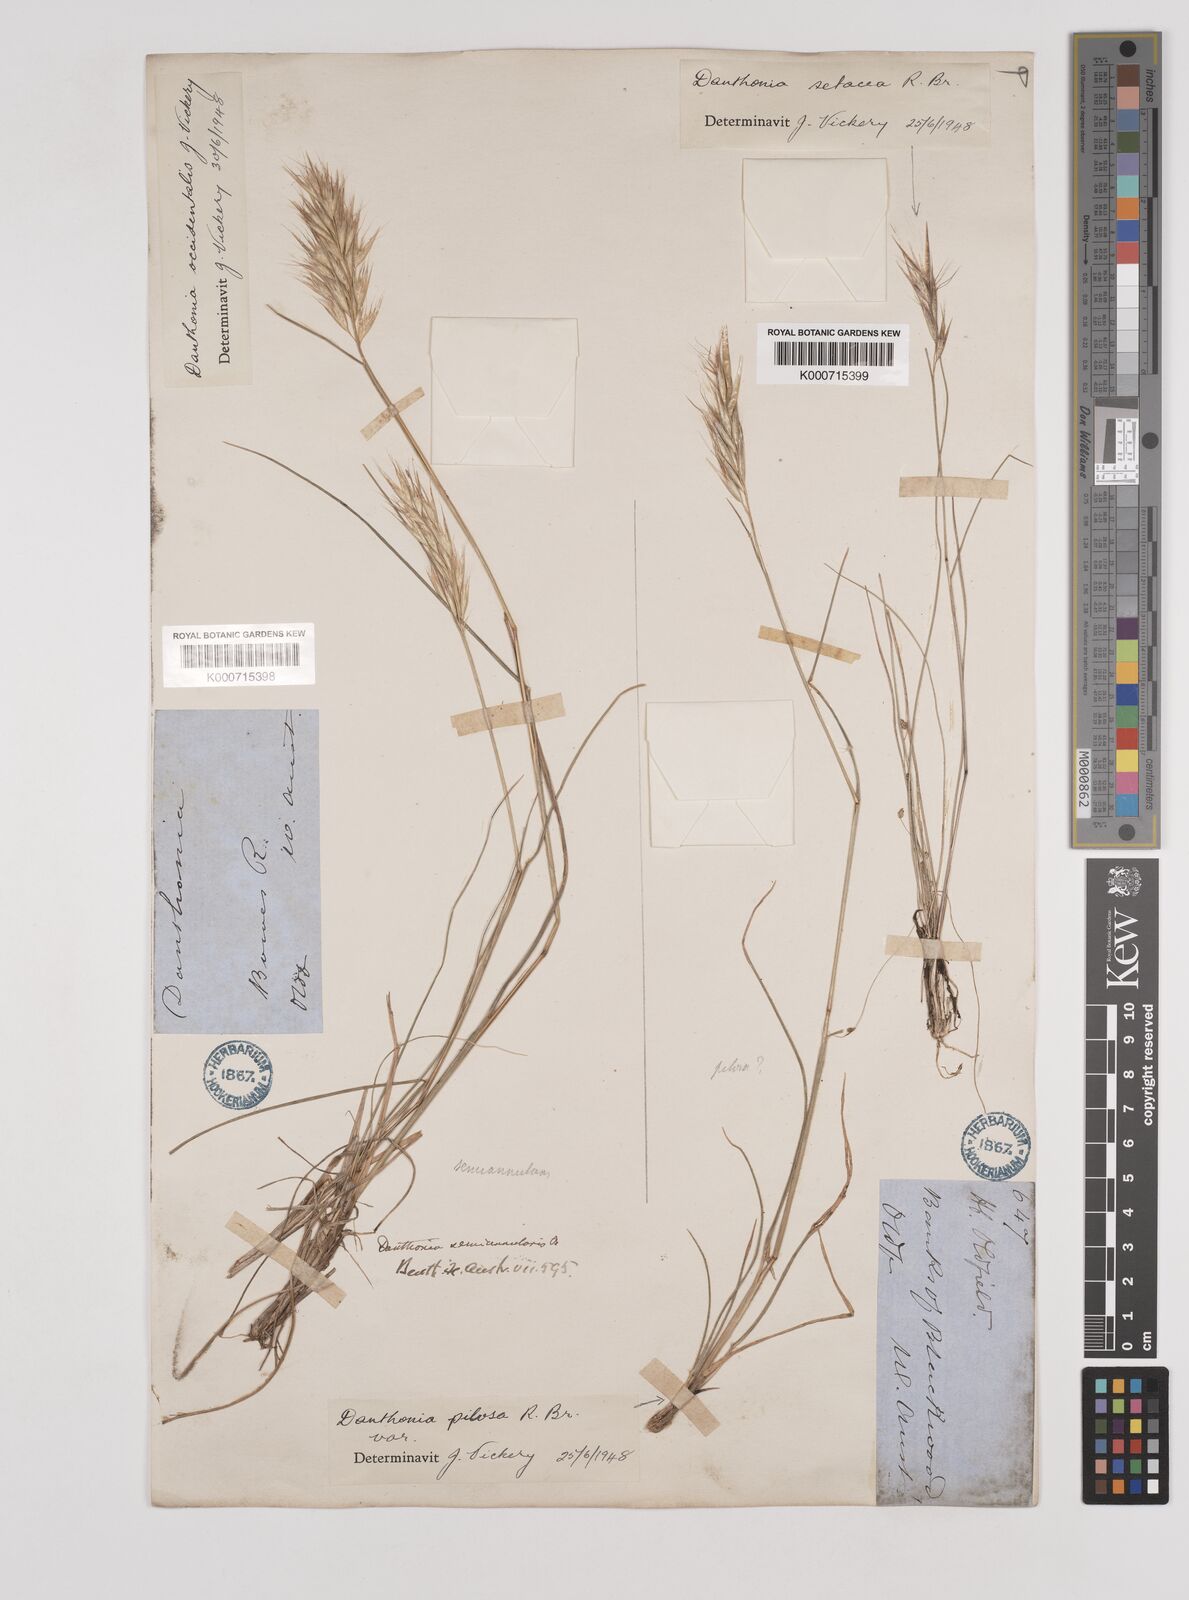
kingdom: Plantae
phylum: Tracheophyta
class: Liliopsida
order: Poales
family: Poaceae
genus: Rytidosperma
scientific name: Rytidosperma occidentale
